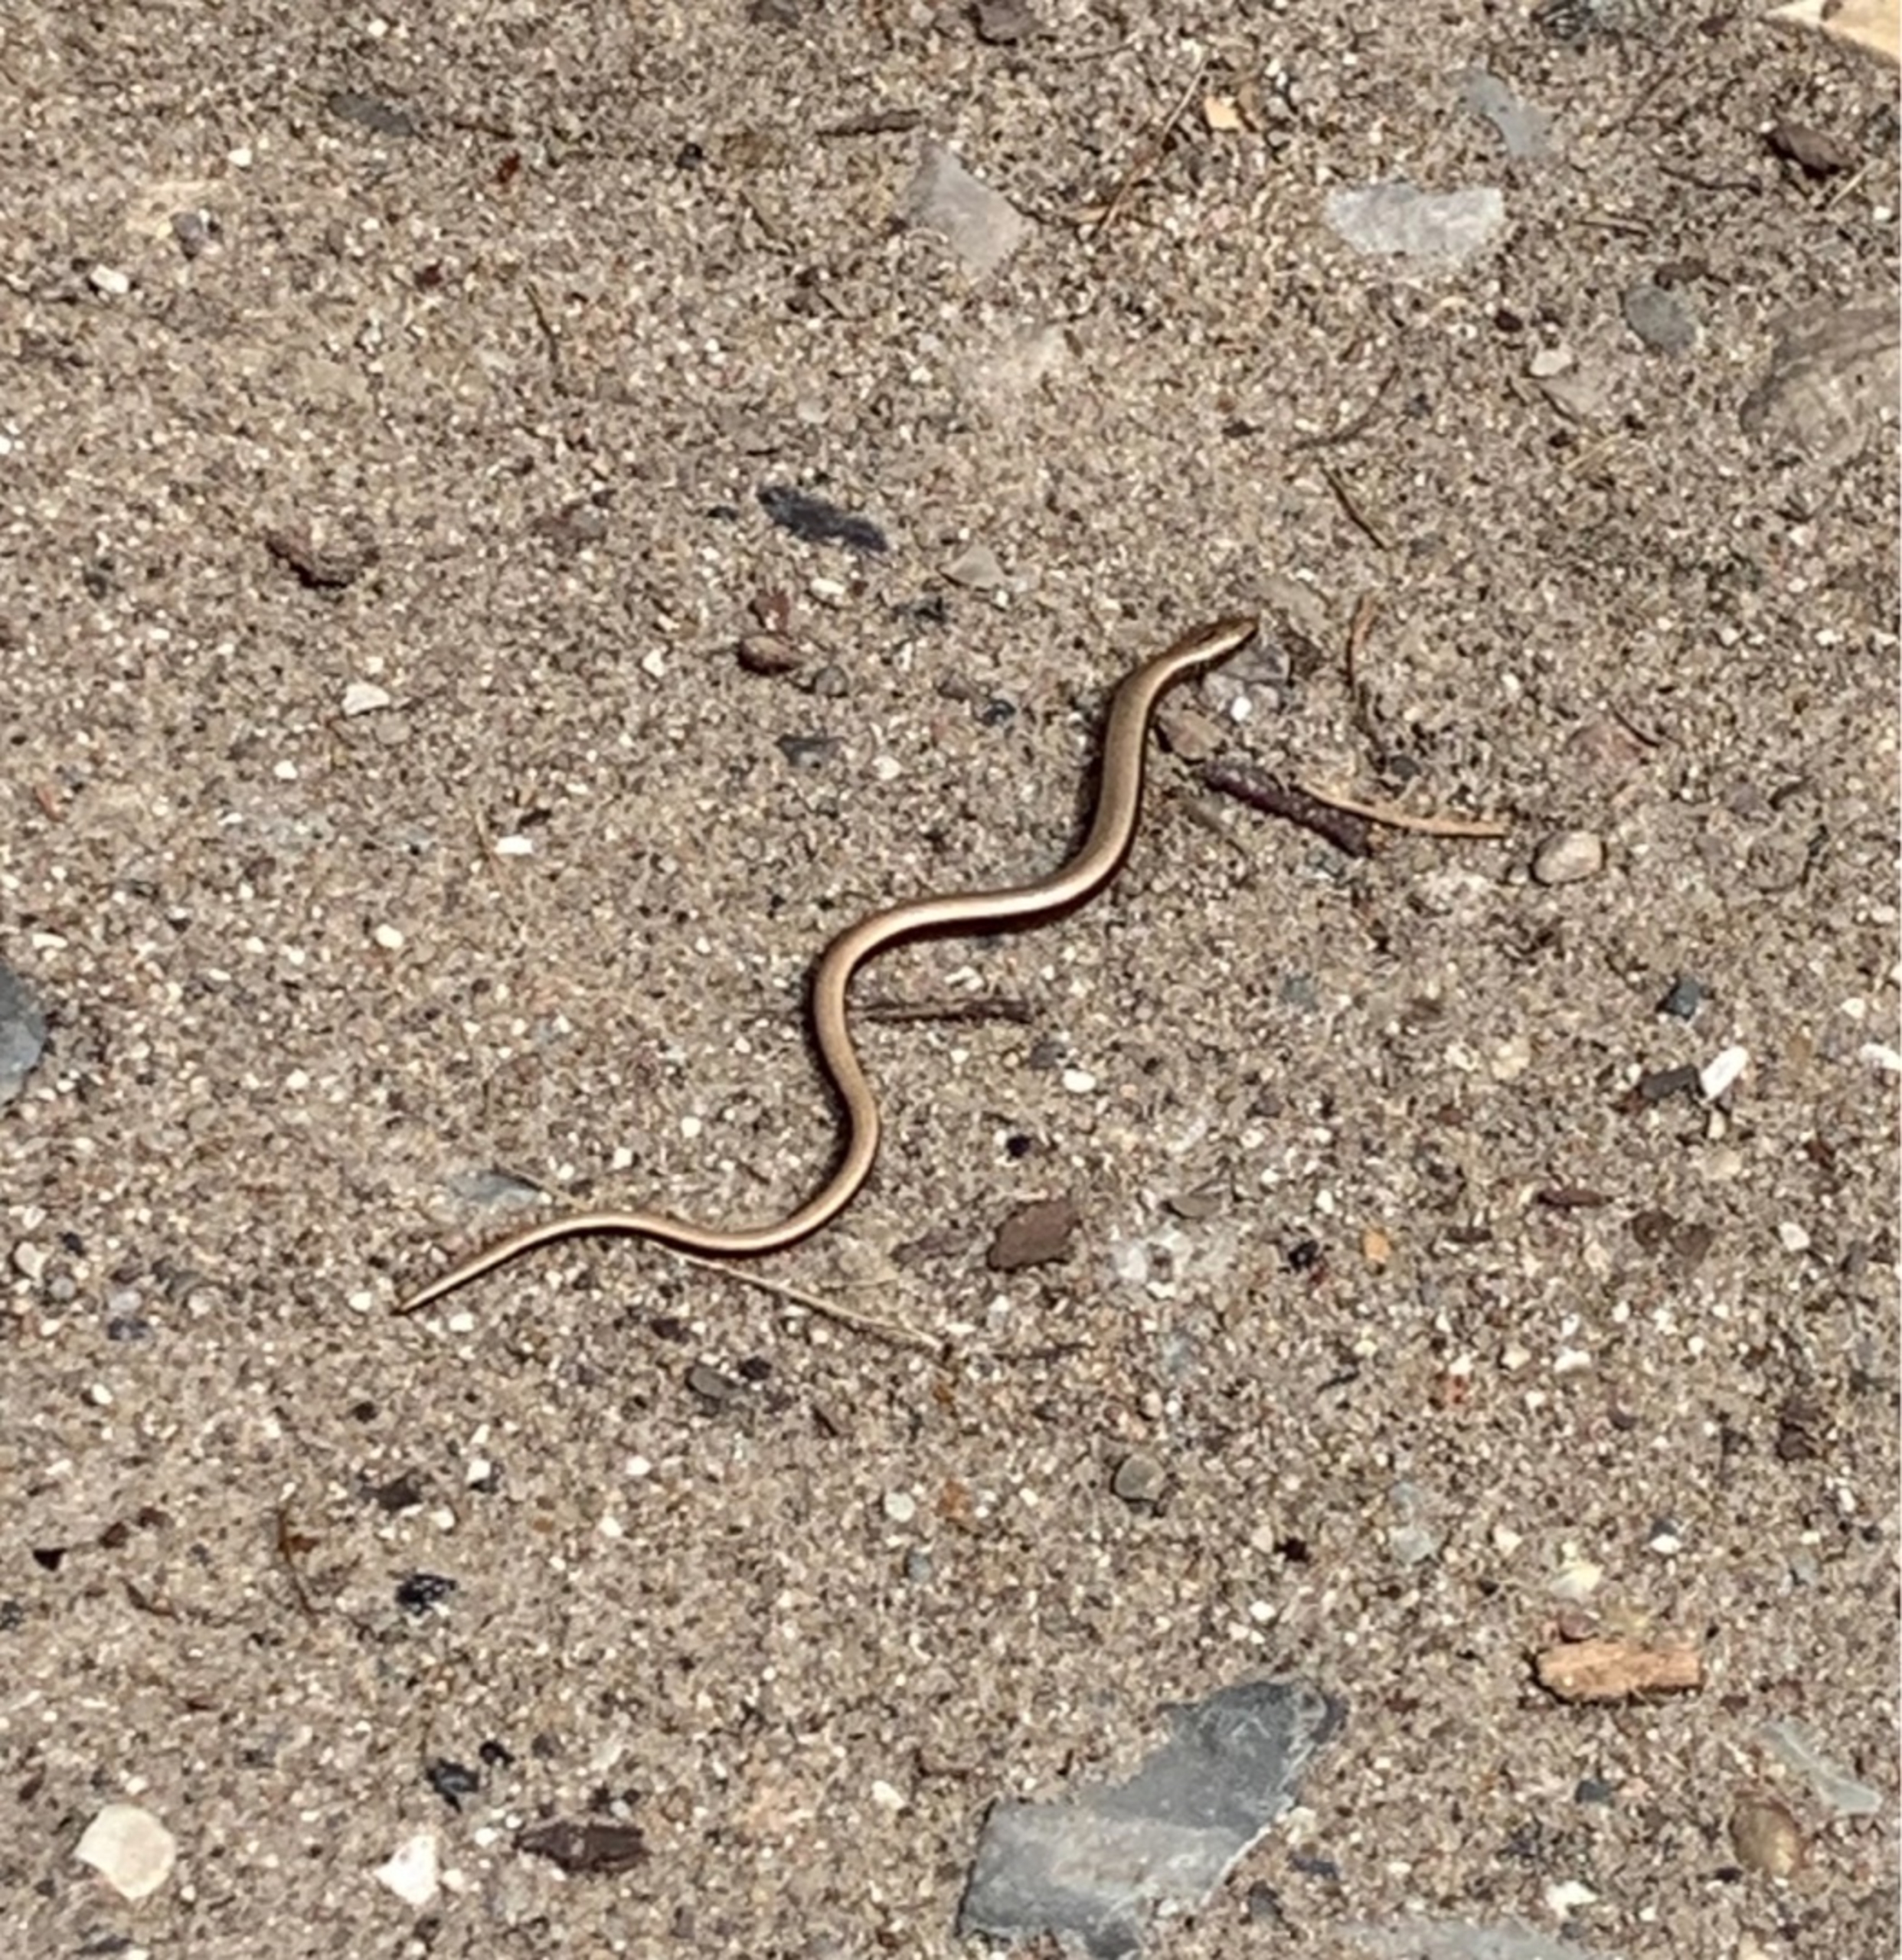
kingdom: Animalia
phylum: Chordata
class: Squamata
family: Anguidae
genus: Anguis
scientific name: Anguis fragilis
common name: Stålorm
